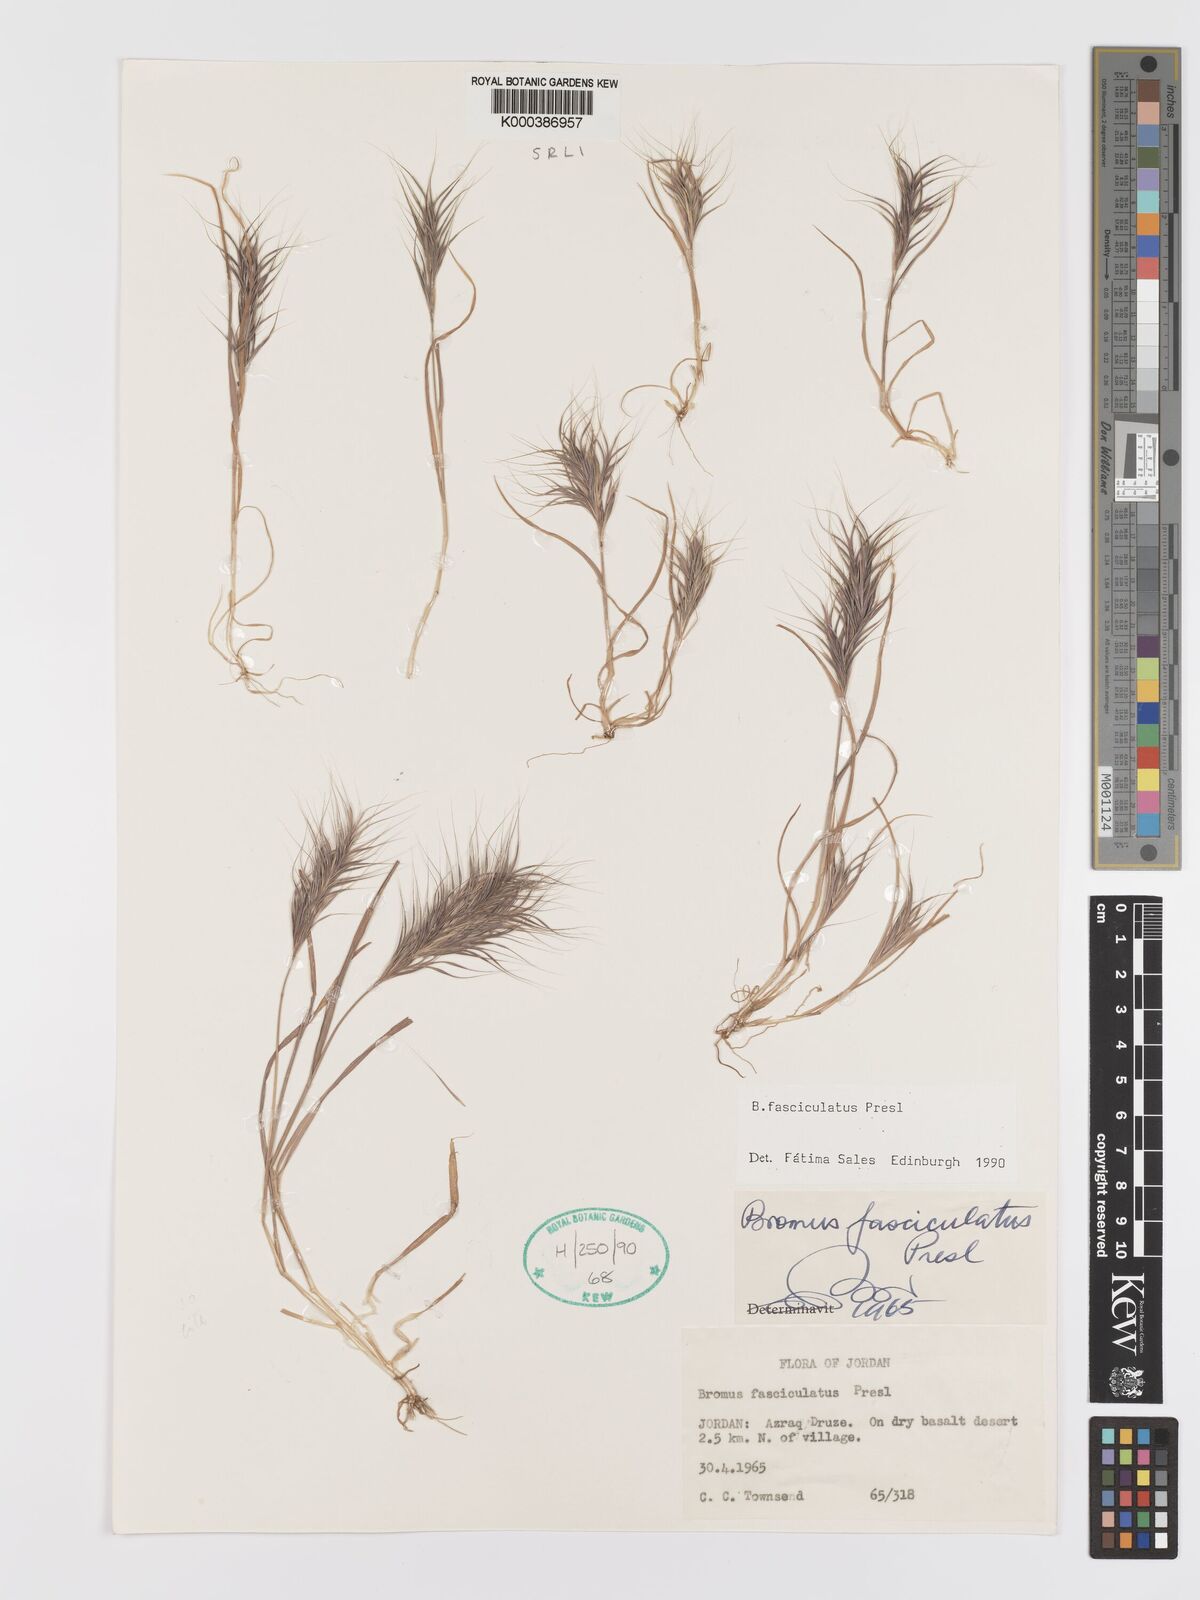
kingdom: Plantae
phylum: Tracheophyta
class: Liliopsida
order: Poales
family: Poaceae
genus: Bromus
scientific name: Bromus fasciculatus
